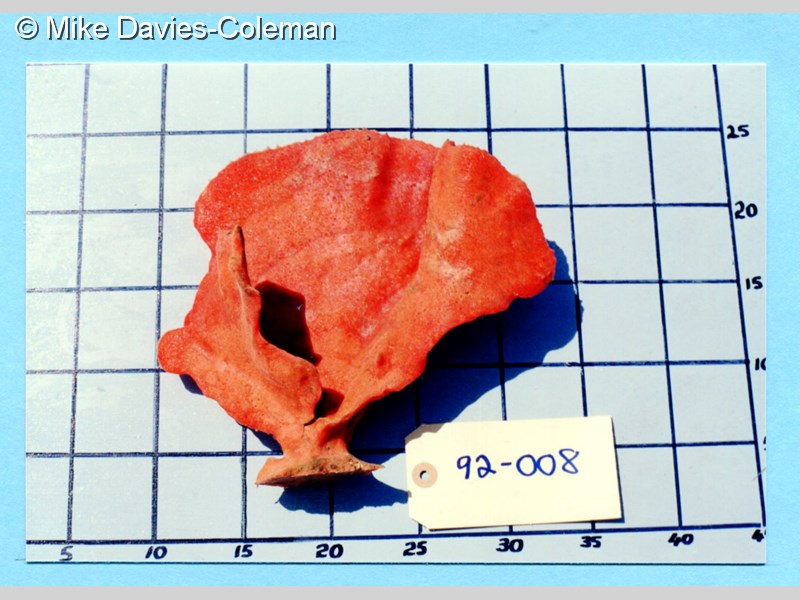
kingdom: Animalia
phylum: Porifera
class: Demospongiae
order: Poecilosclerida
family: Isodictyidae
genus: Isodictya
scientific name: Isodictya
